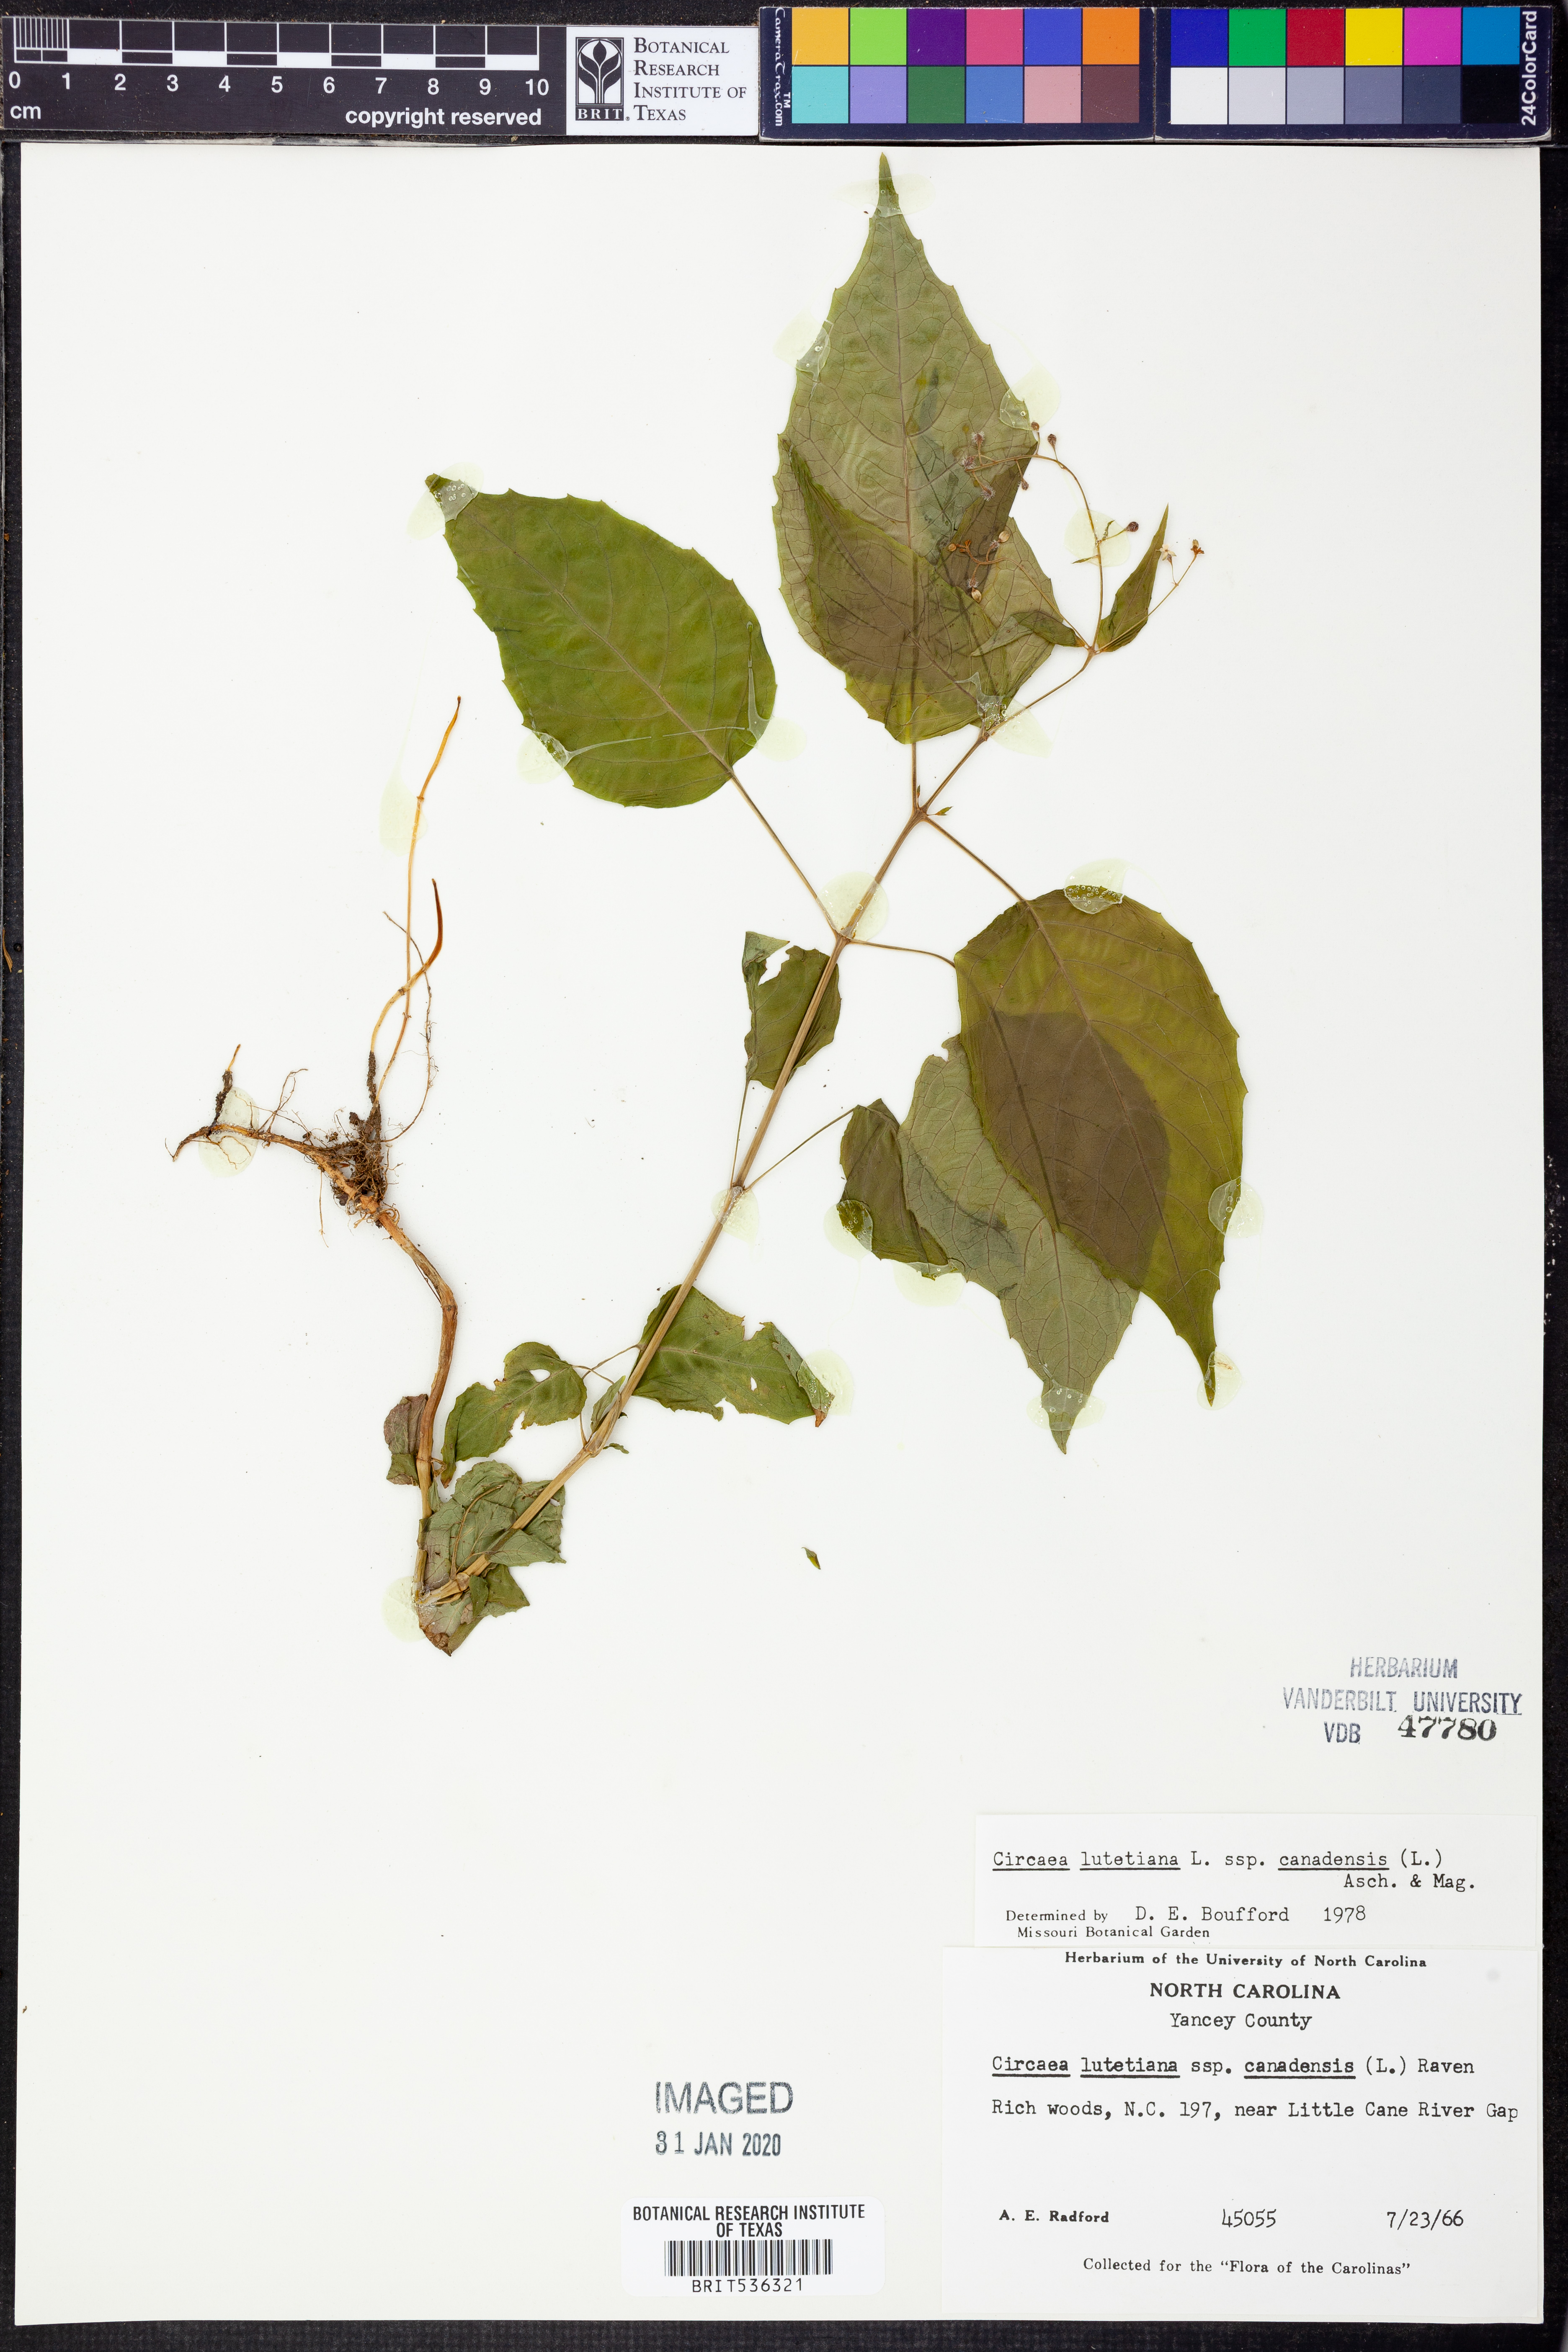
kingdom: Plantae
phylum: Tracheophyta
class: Magnoliopsida
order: Myrtales
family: Onagraceae
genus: Circaea
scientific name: Circaea canadensis
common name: Broad-leaved enchanter's nightshade
